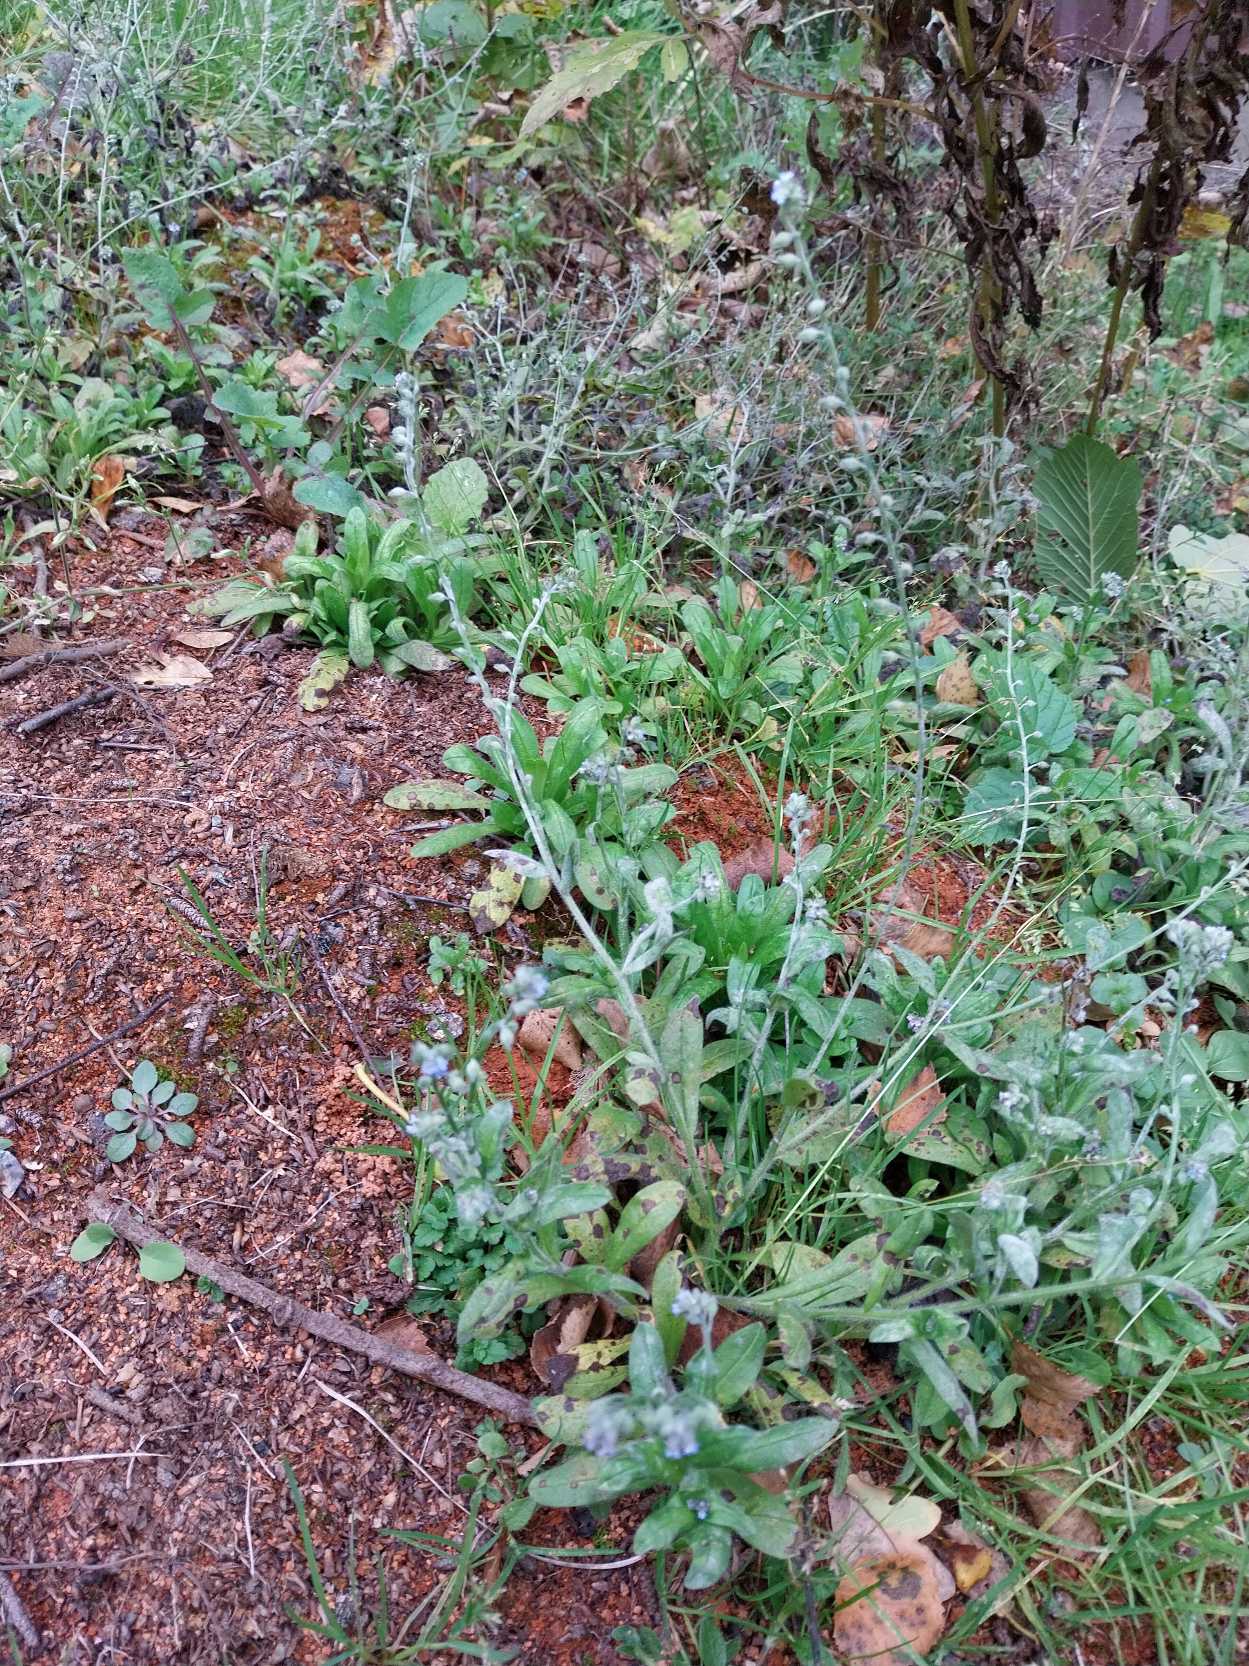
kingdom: Plantae
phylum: Tracheophyta
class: Magnoliopsida
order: Boraginales
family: Boraginaceae
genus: Myosotis
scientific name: Myosotis arvensis
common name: Mark-forglemmigej
